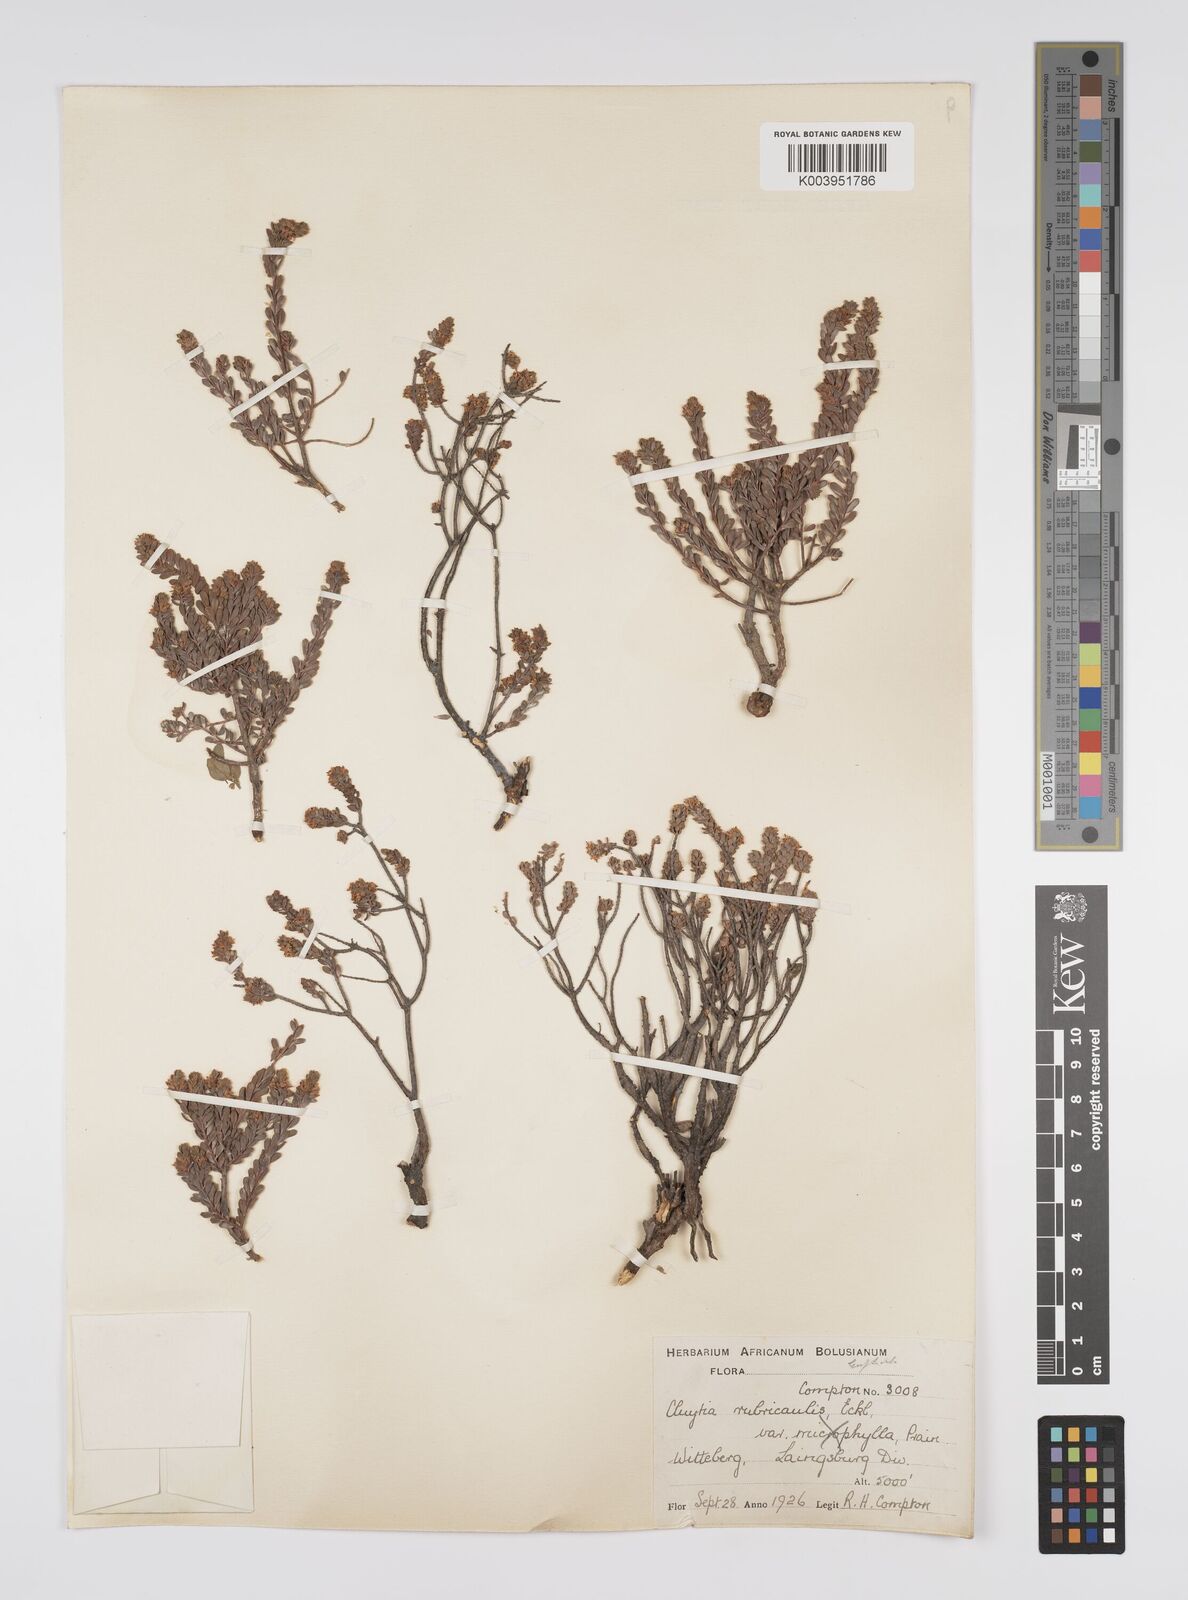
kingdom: Plantae
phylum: Tracheophyta
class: Magnoliopsida
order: Malpighiales
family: Peraceae
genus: Clutia
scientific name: Clutia rubricaulis
